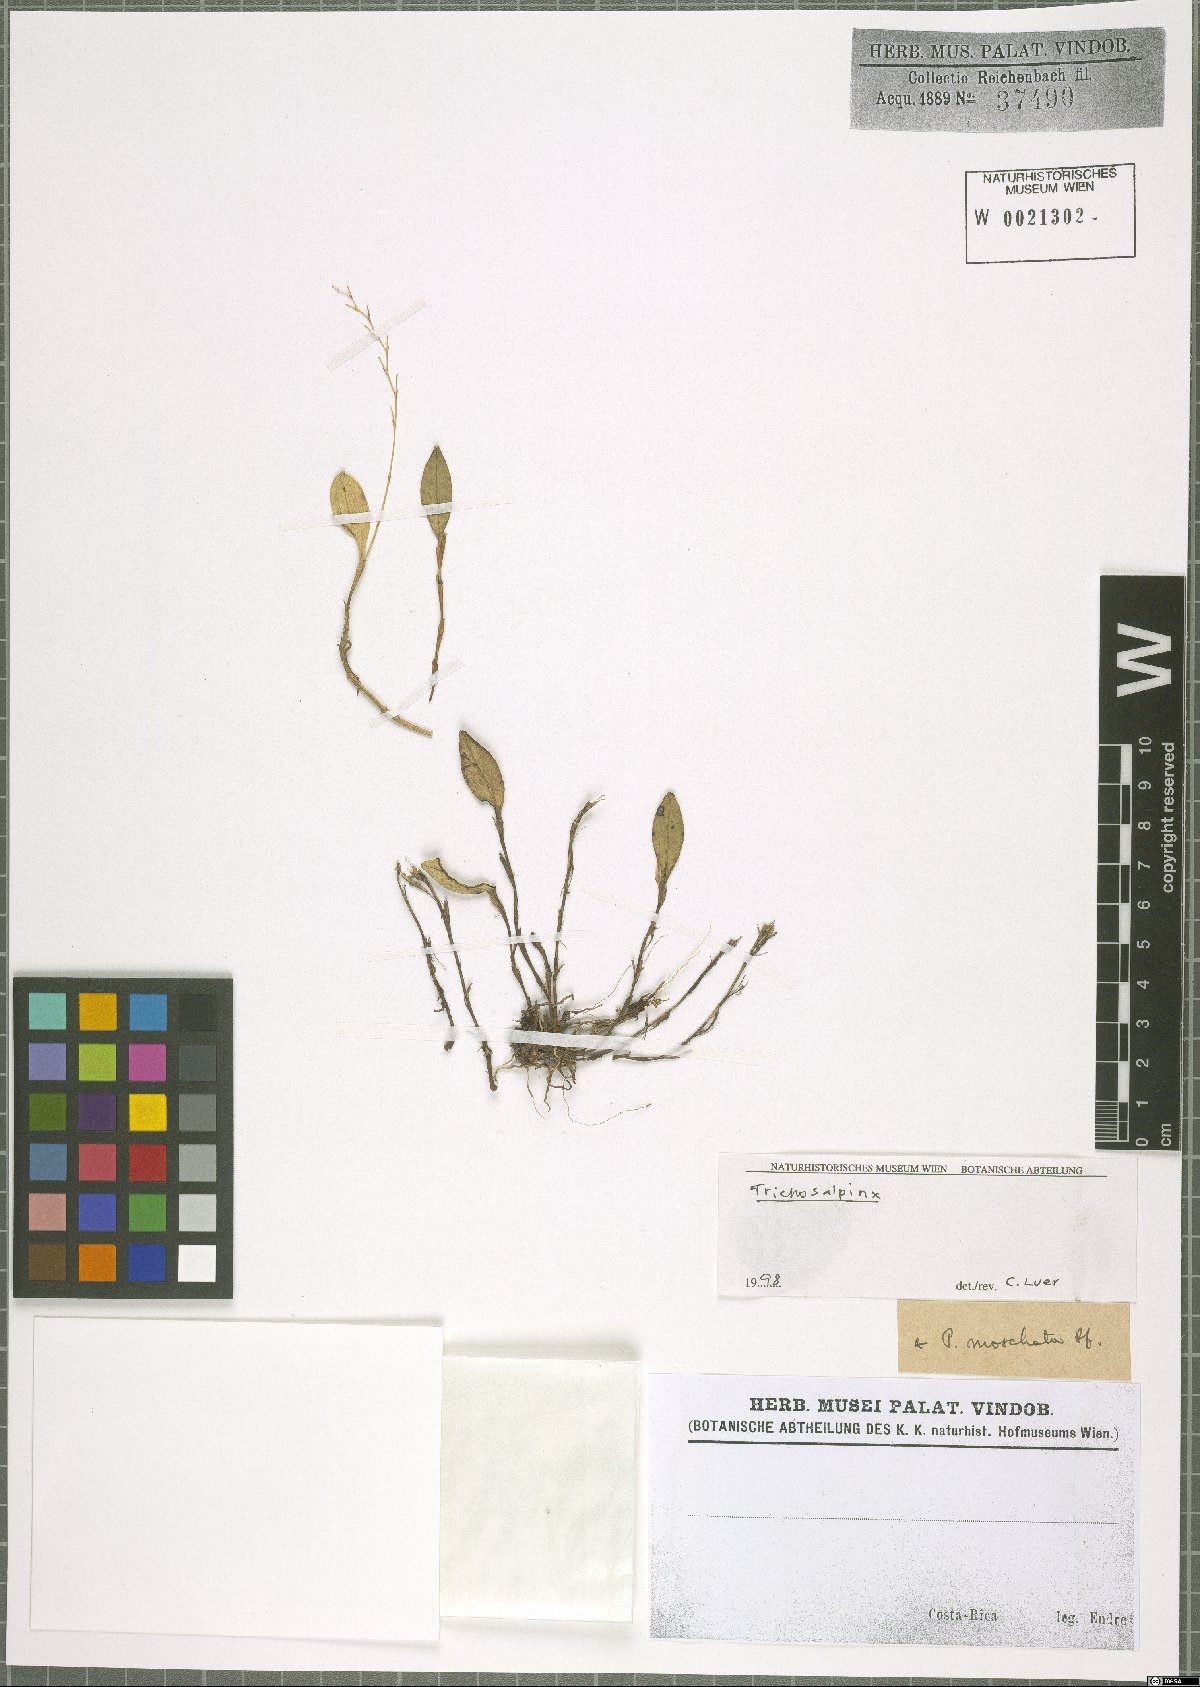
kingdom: Plantae
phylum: Tracheophyta
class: Liliopsida
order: Asparagales
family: Orchidaceae
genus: Trichosalpinx
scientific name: Trichosalpinx
